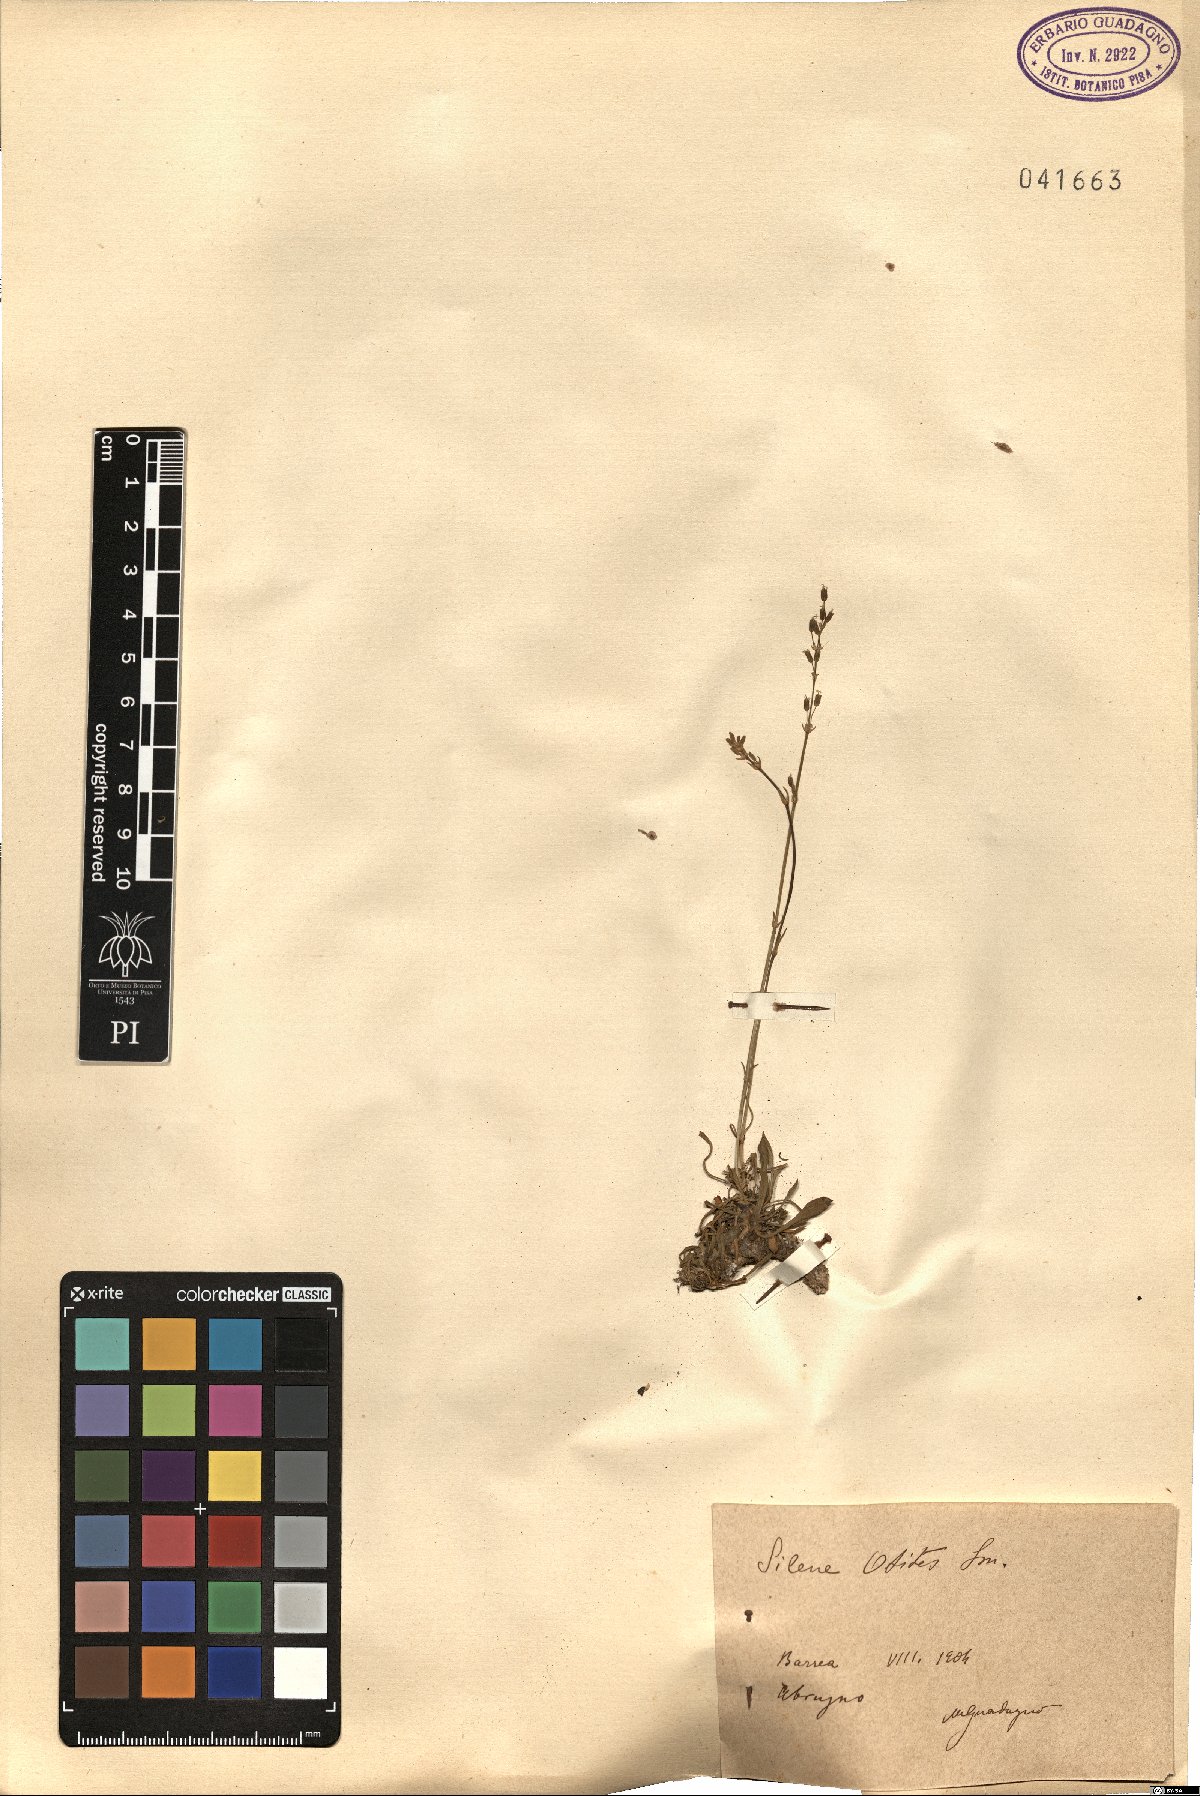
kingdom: Plantae
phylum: Tracheophyta
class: Magnoliopsida
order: Caryophyllales
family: Caryophyllaceae
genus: Silene
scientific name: Silene otites
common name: Spanish catchfly
